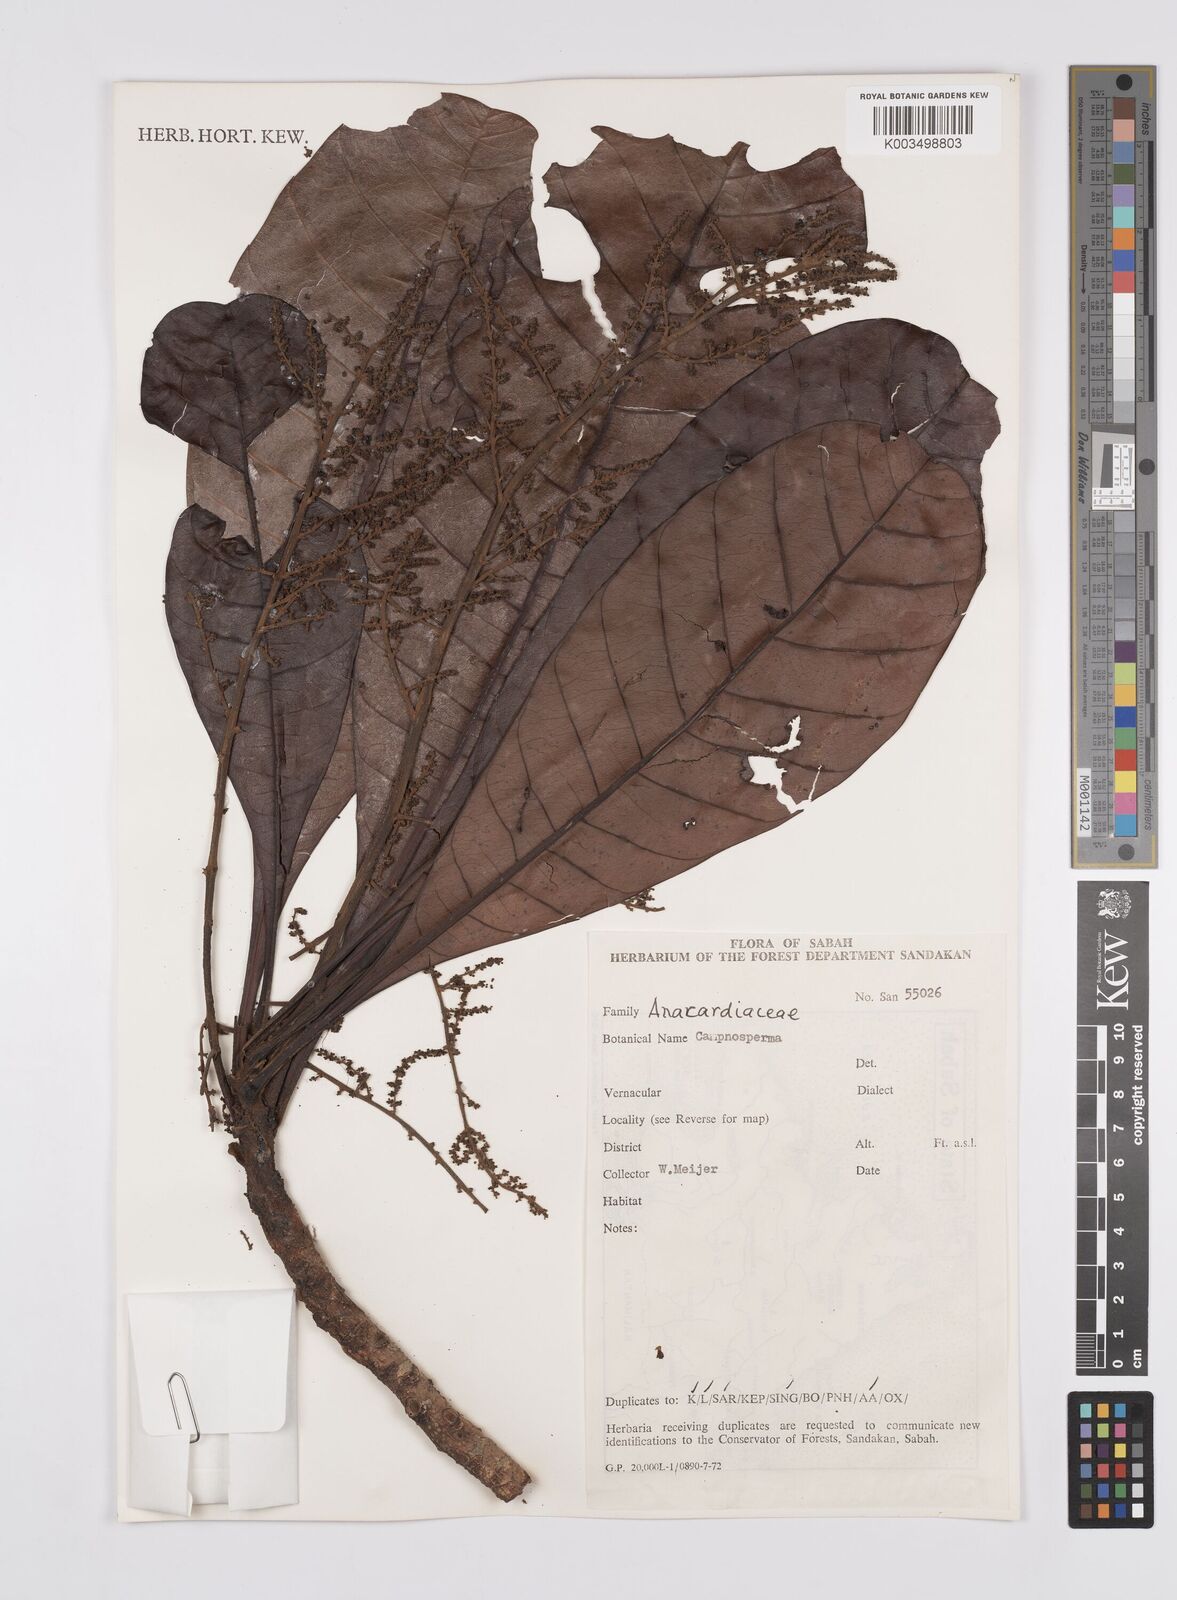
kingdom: Plantae
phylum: Tracheophyta
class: Magnoliopsida
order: Sapindales
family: Anacardiaceae
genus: Campnosperma
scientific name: Campnosperma
